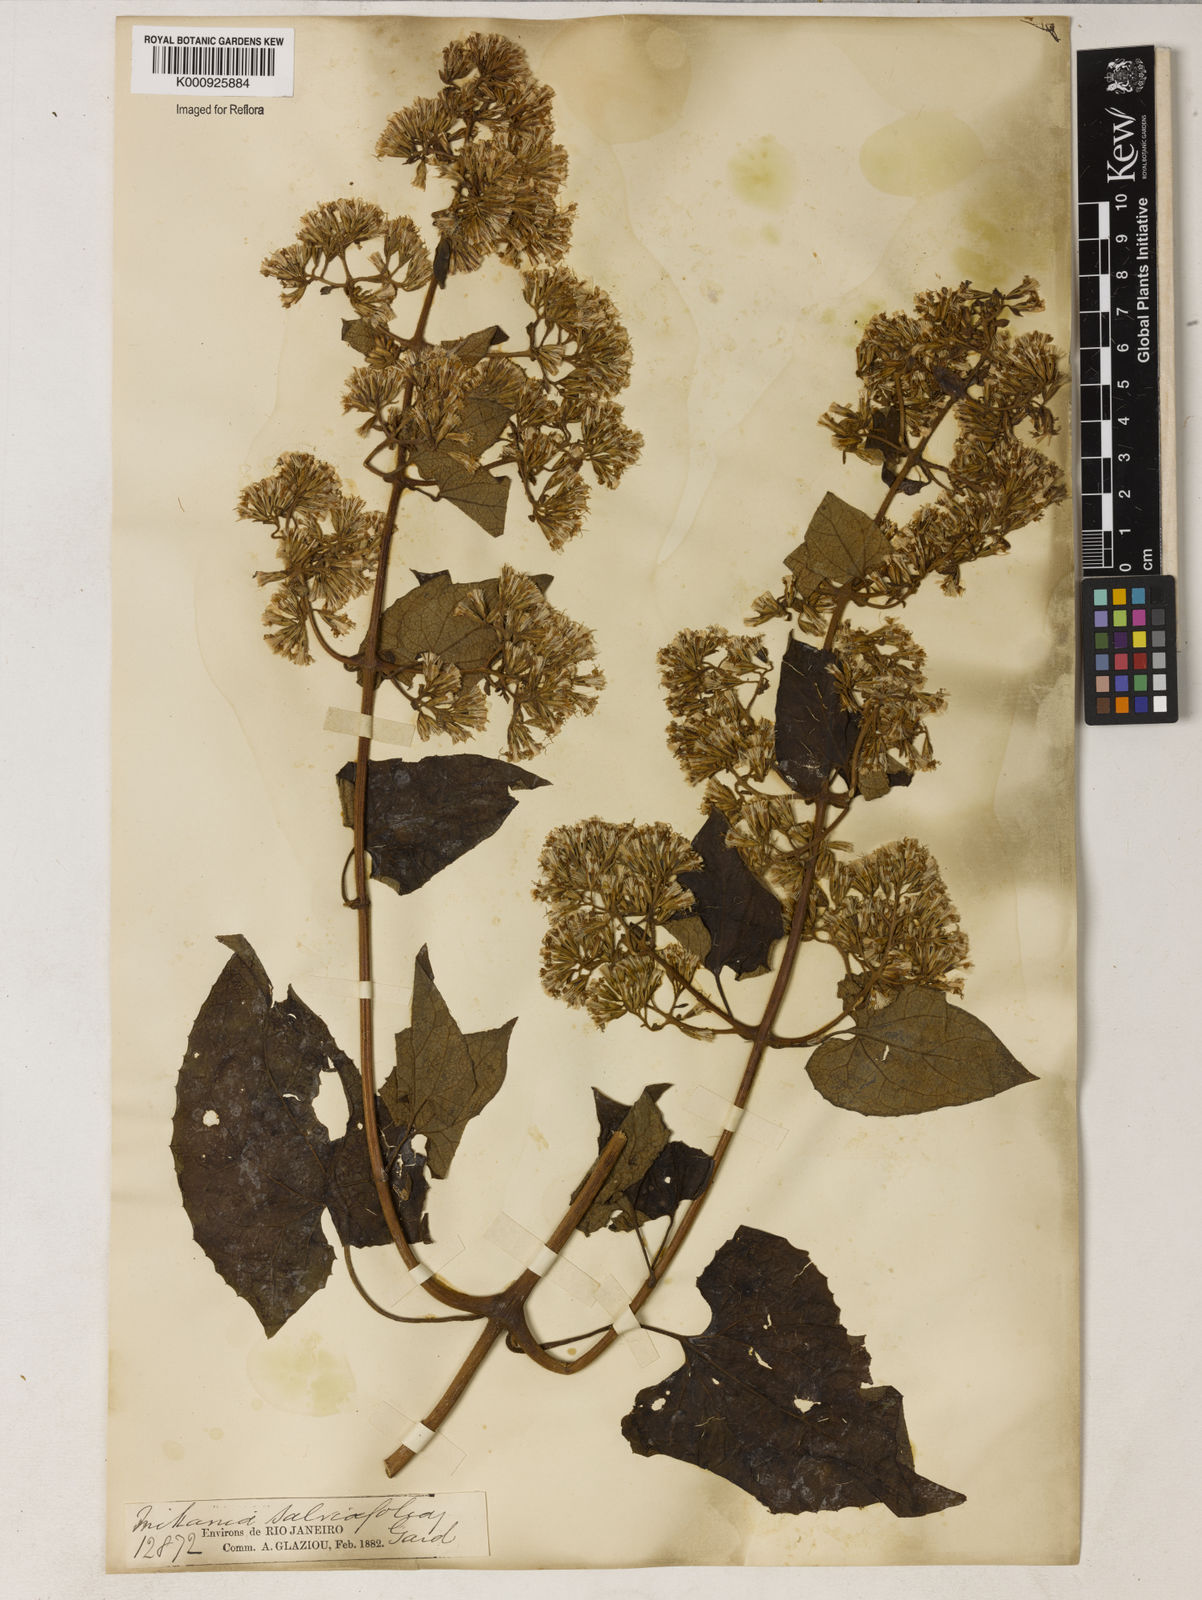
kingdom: Plantae
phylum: Tracheophyta
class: Magnoliopsida
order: Asterales
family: Asteraceae
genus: Mikania
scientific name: Mikania
